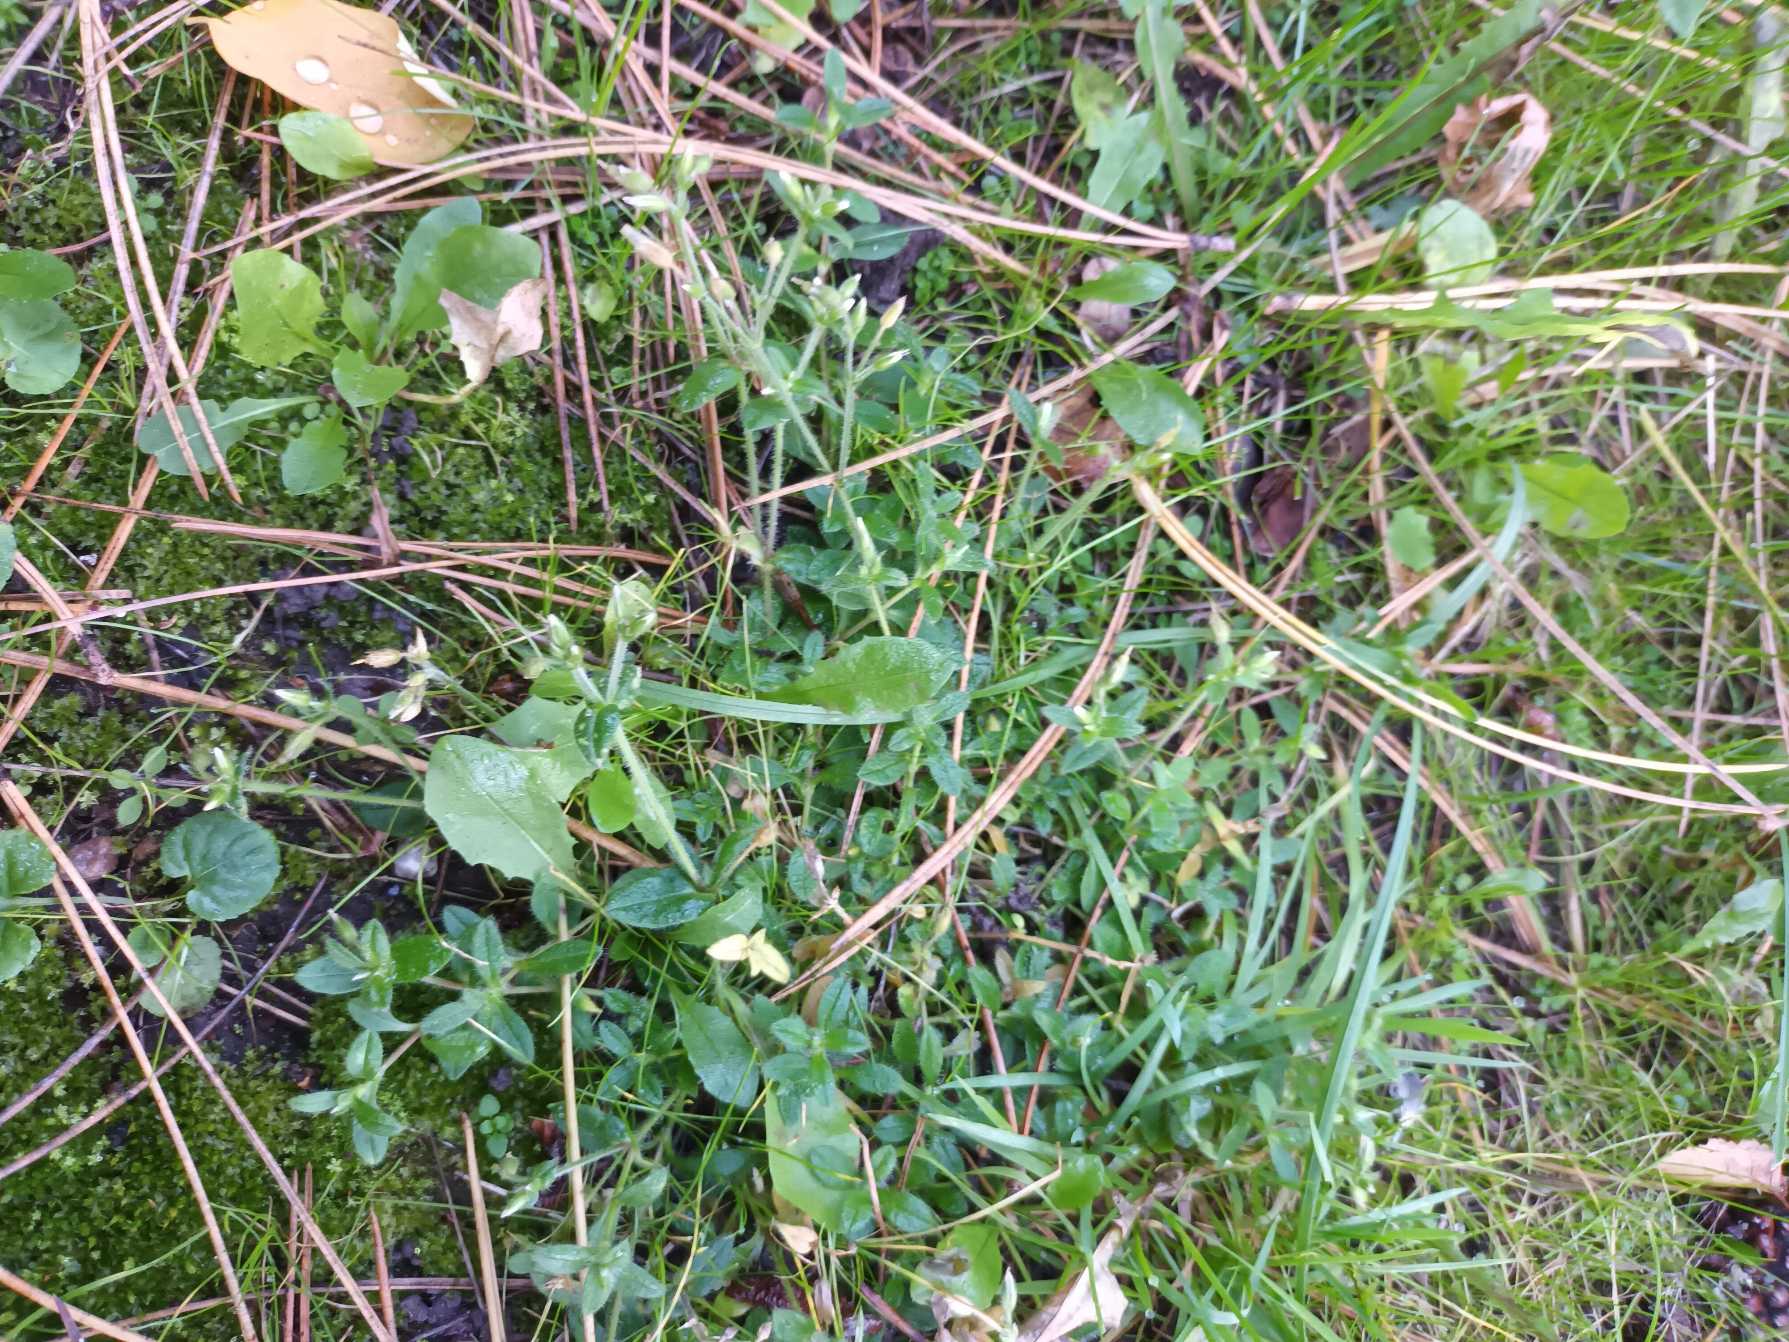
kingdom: Plantae
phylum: Tracheophyta
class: Magnoliopsida
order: Caryophyllales
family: Caryophyllaceae
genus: Cerastium
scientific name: Cerastium fontanum
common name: Almindelig hønsetarm
